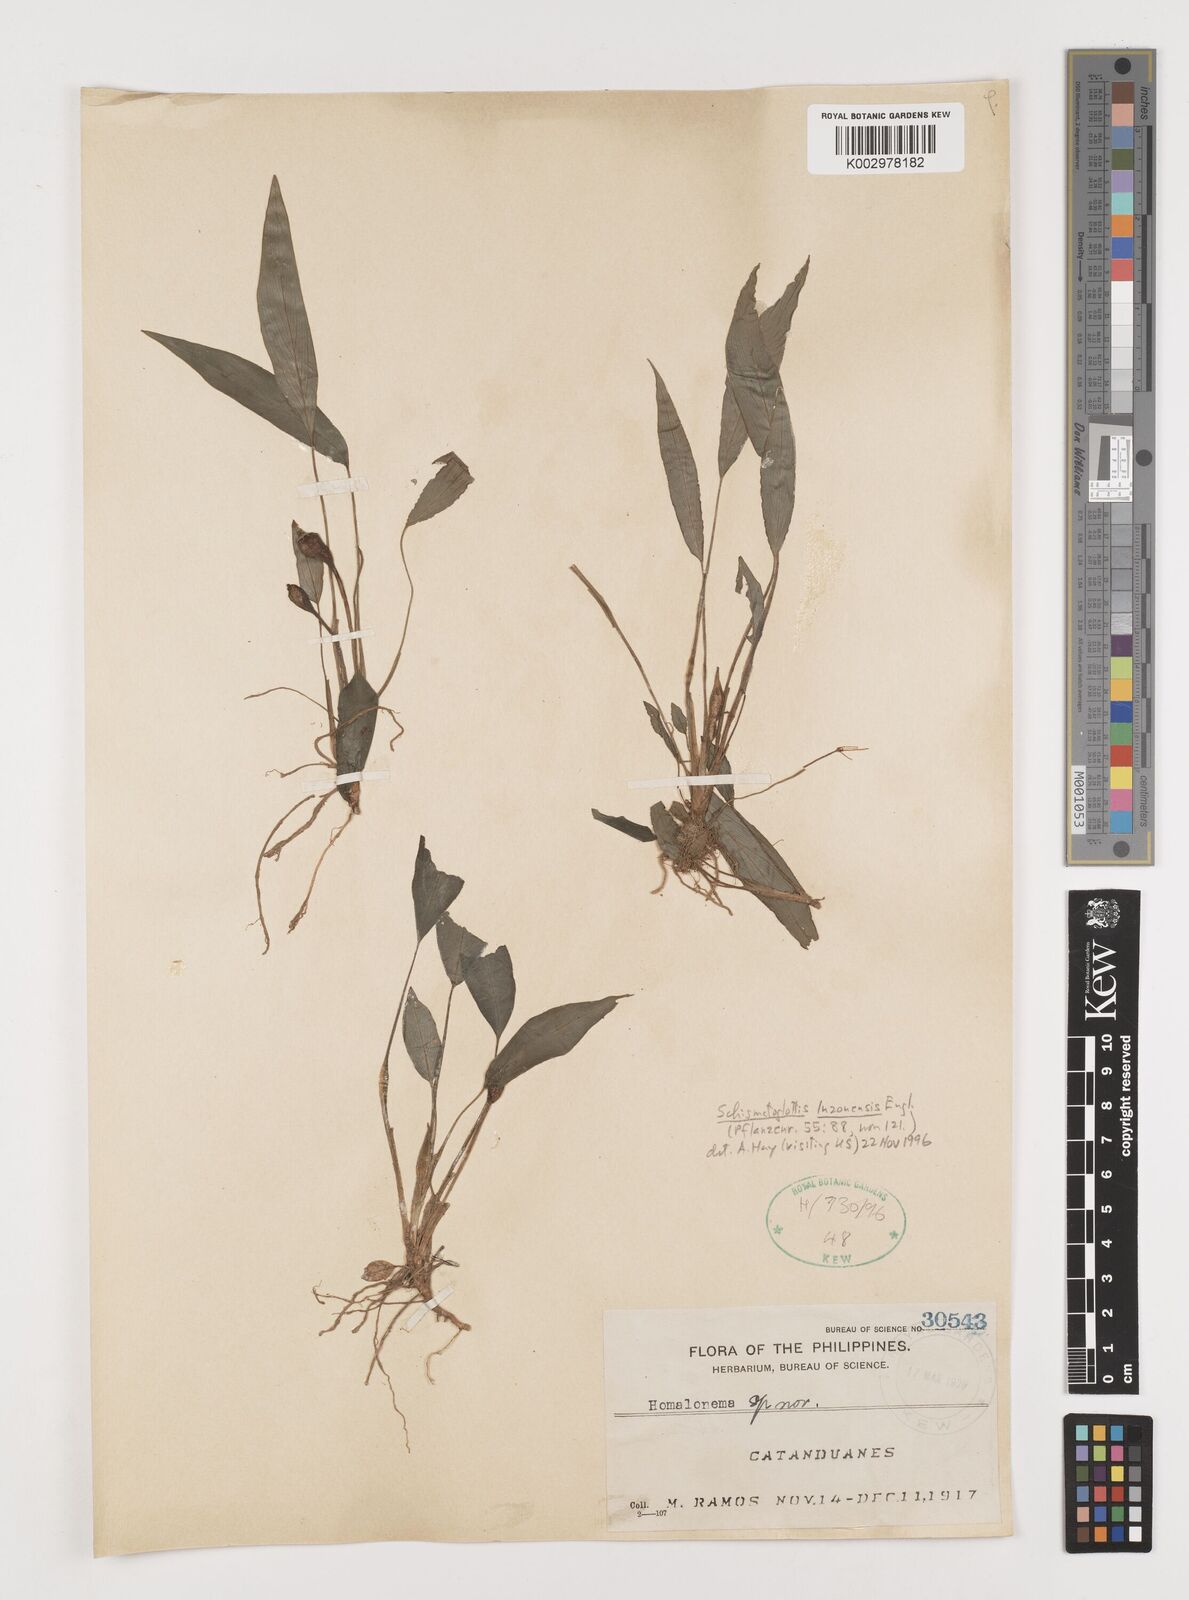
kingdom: Plantae
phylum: Tracheophyta
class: Liliopsida
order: Alismatales
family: Araceae
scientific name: Araceae
